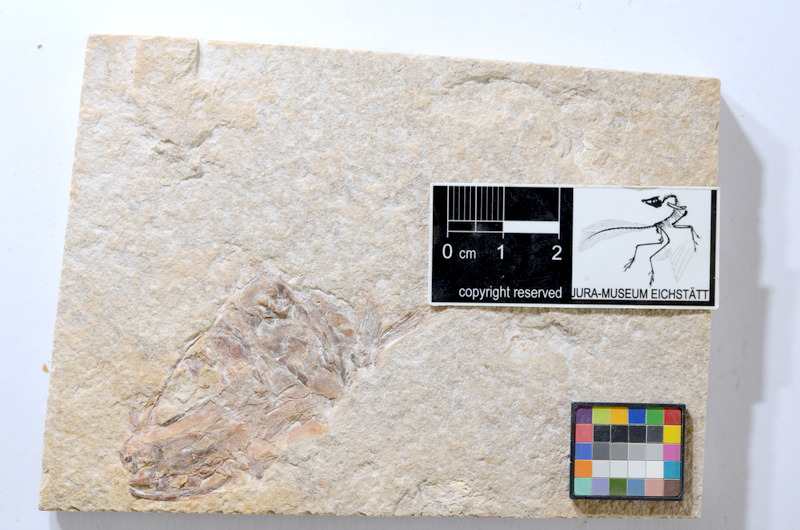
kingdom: Animalia
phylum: Chordata
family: Ascalaboidae
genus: Tharsis
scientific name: Tharsis dubius
